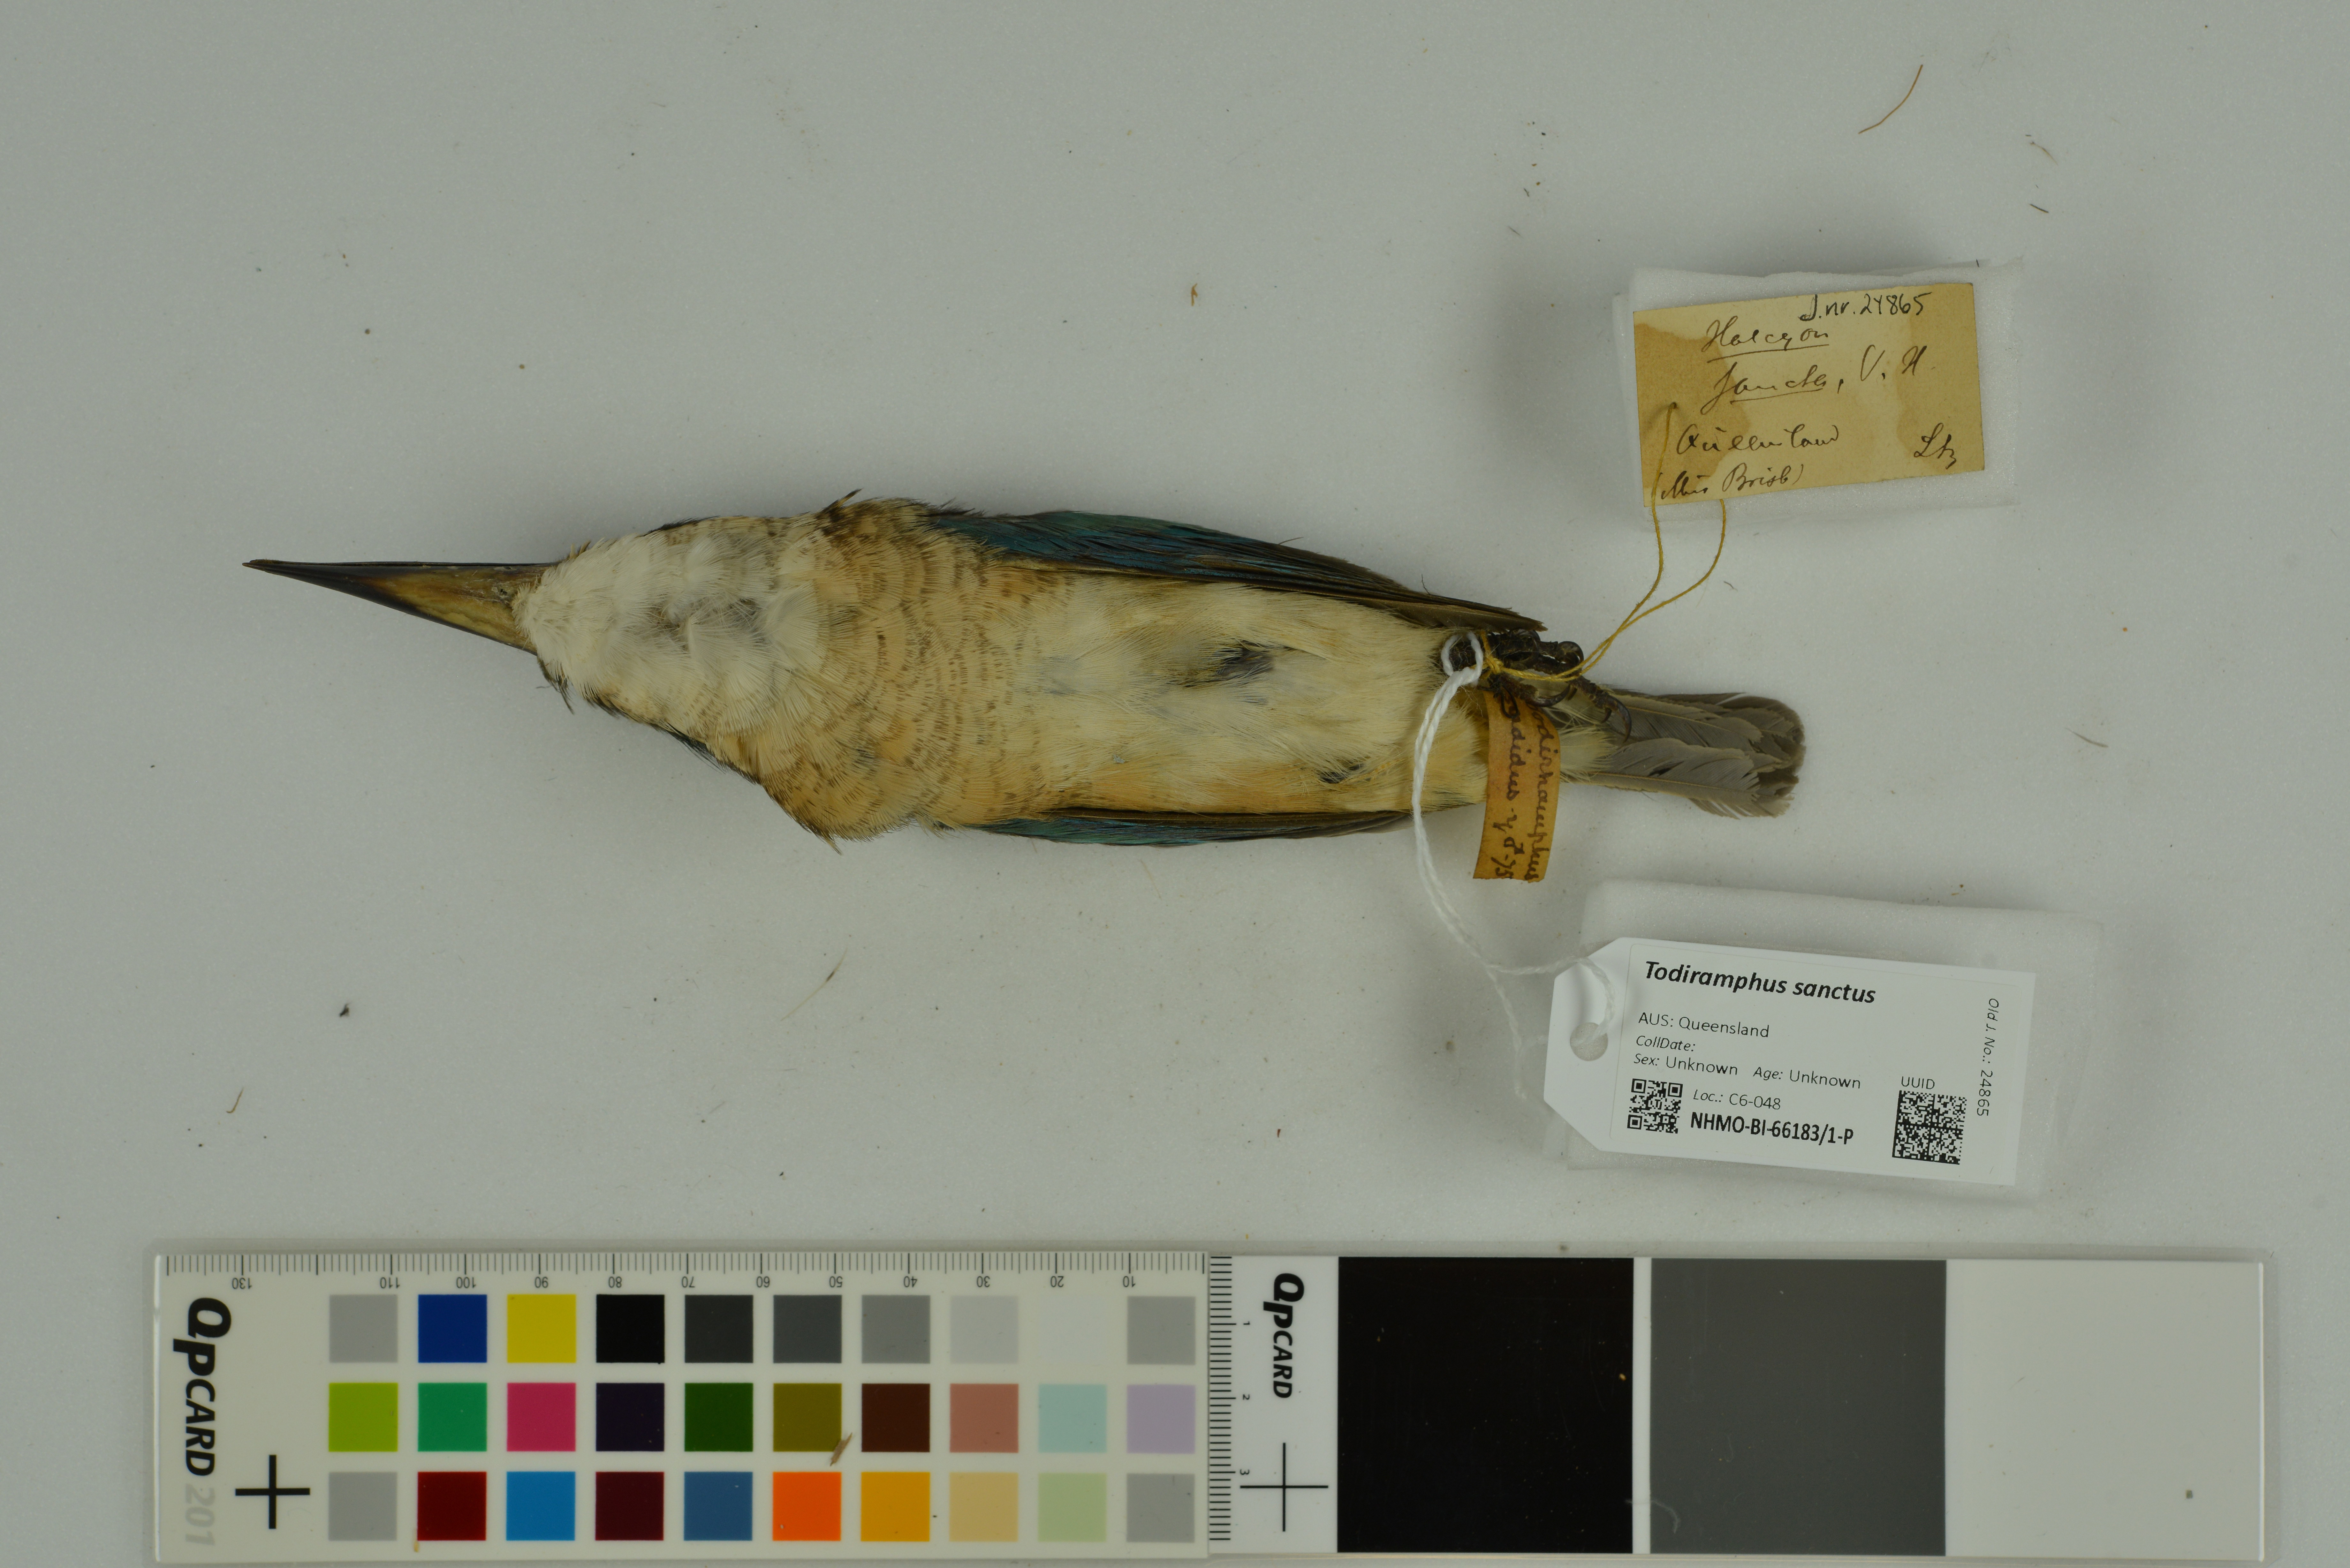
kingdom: Animalia
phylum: Chordata
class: Aves
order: Coraciiformes
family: Alcedinidae
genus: Todiramphus
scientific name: Todiramphus sanctus
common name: Sacred kingfisher
